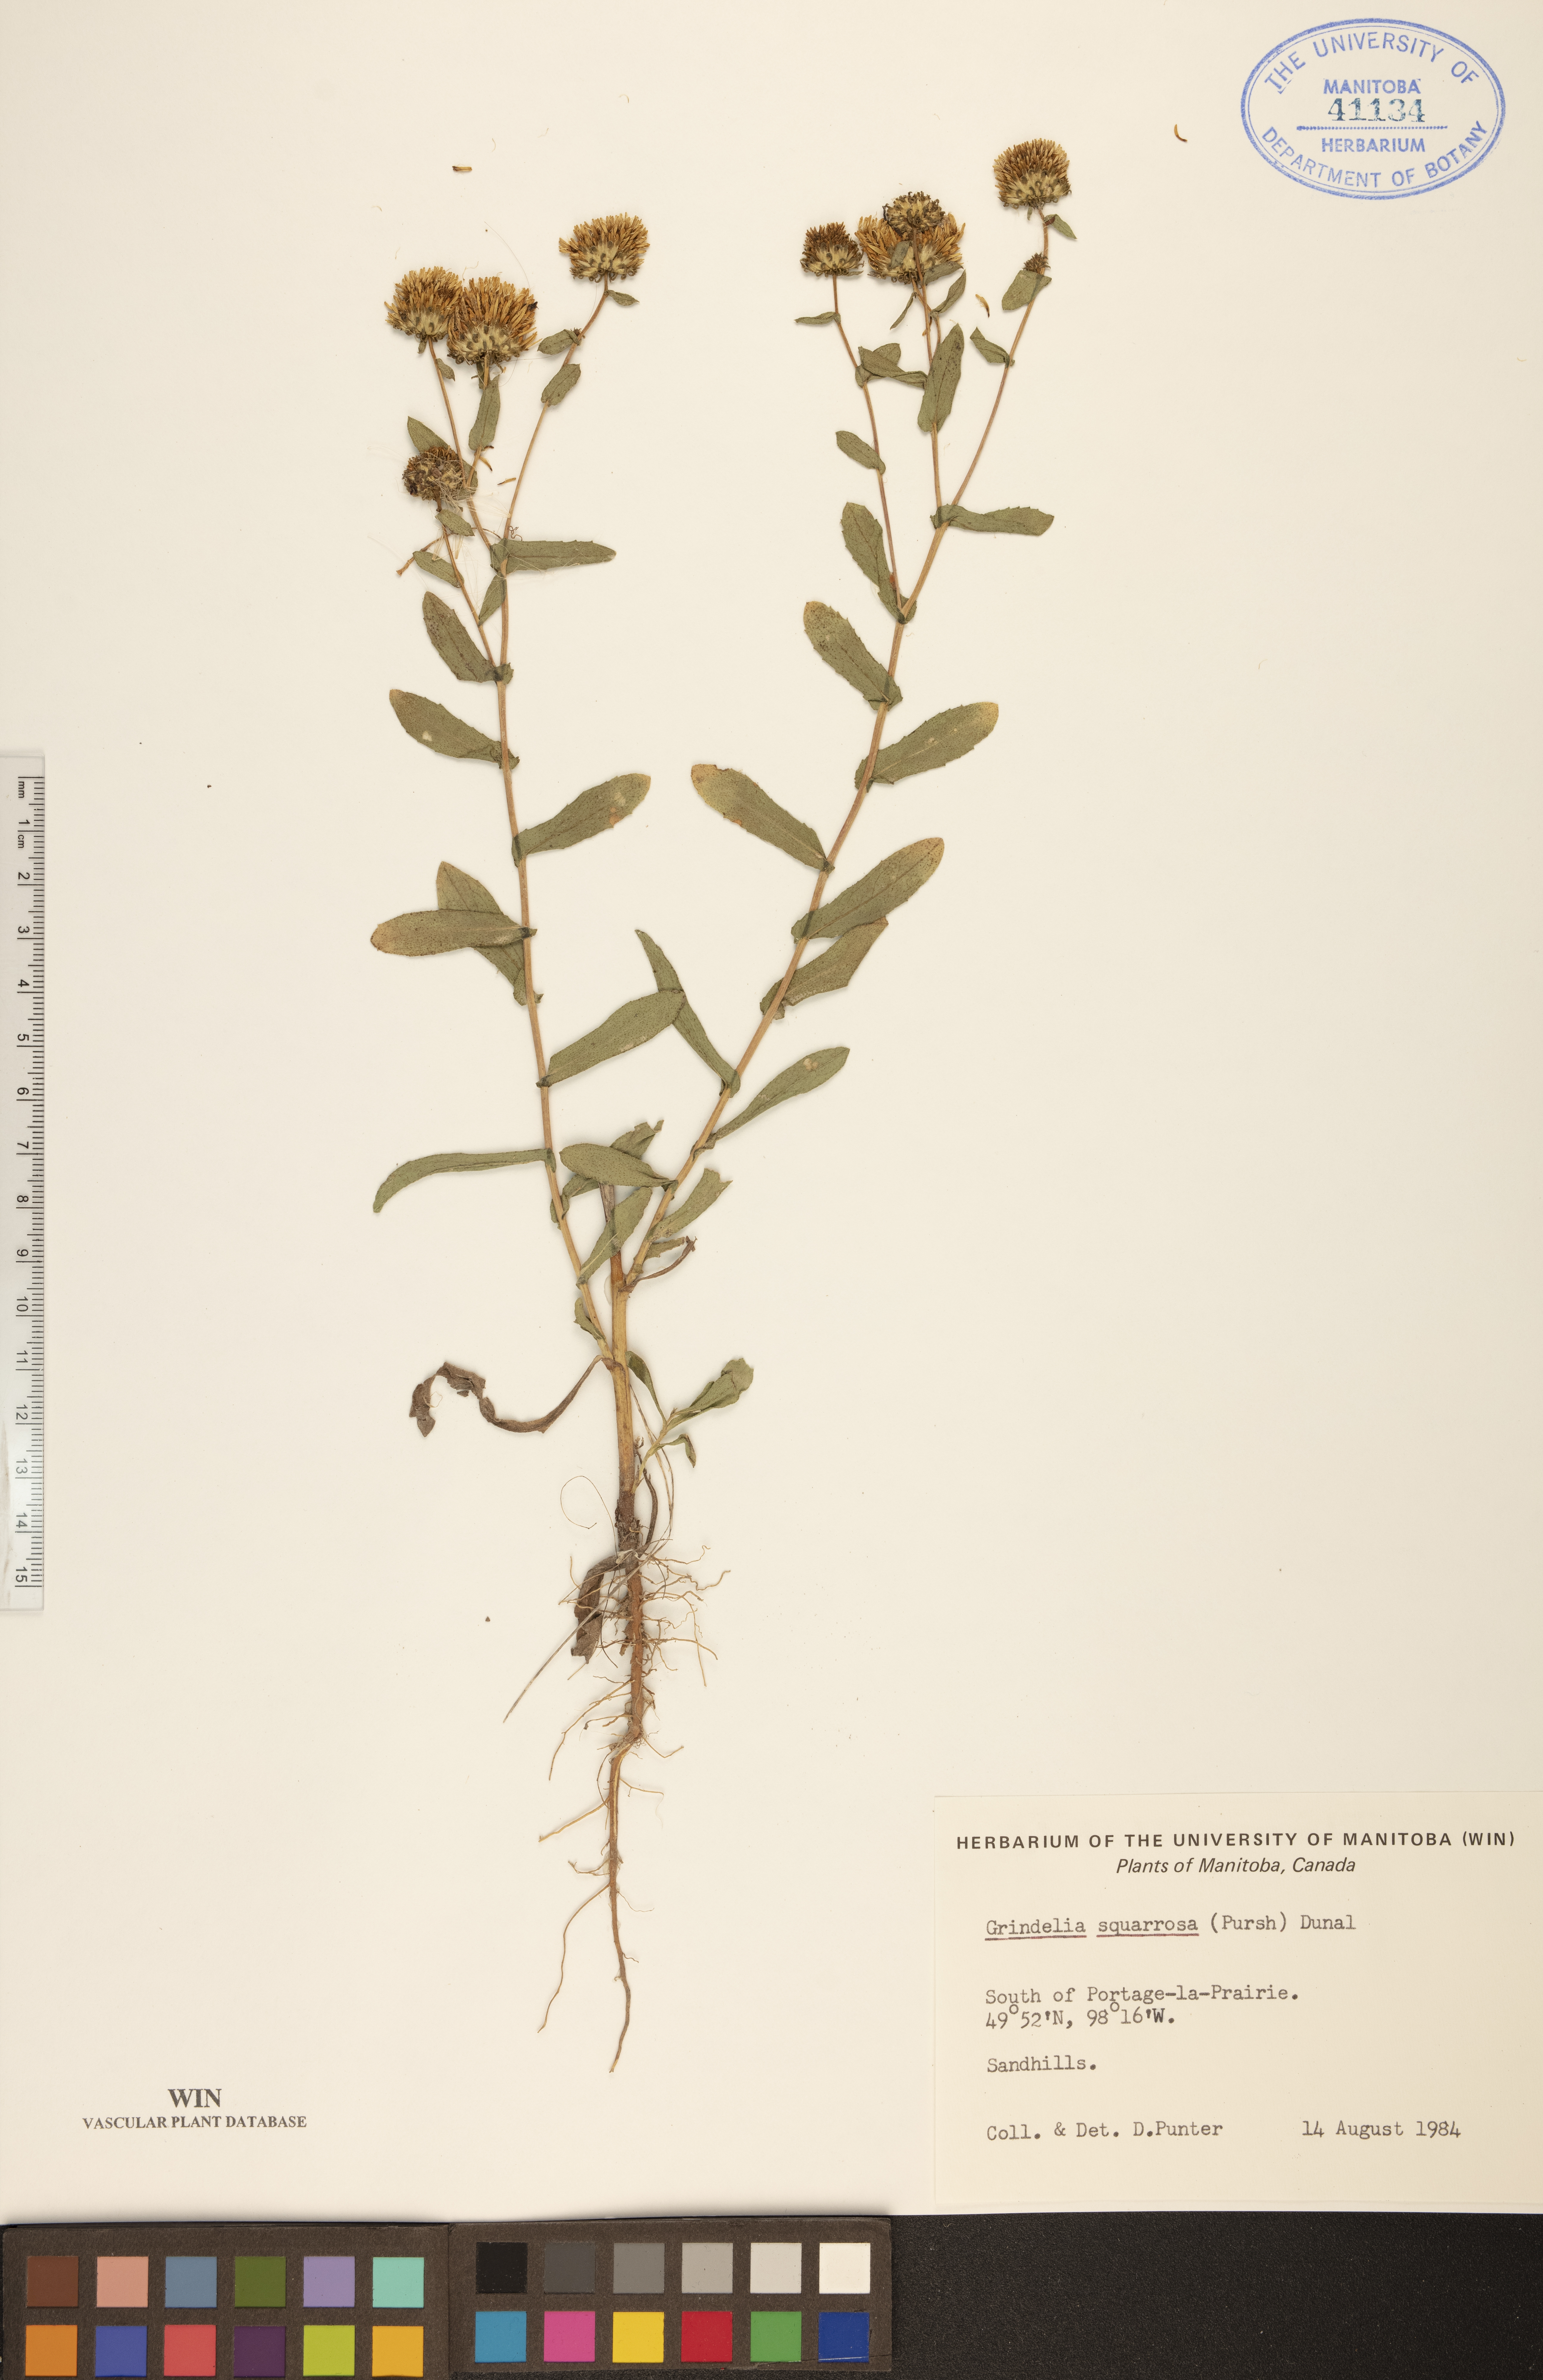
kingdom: Plantae
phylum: Tracheophyta
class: Magnoliopsida
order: Asterales
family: Asteraceae
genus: Grindelia
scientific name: Grindelia squarrosa
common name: Curly-cup gumweed
